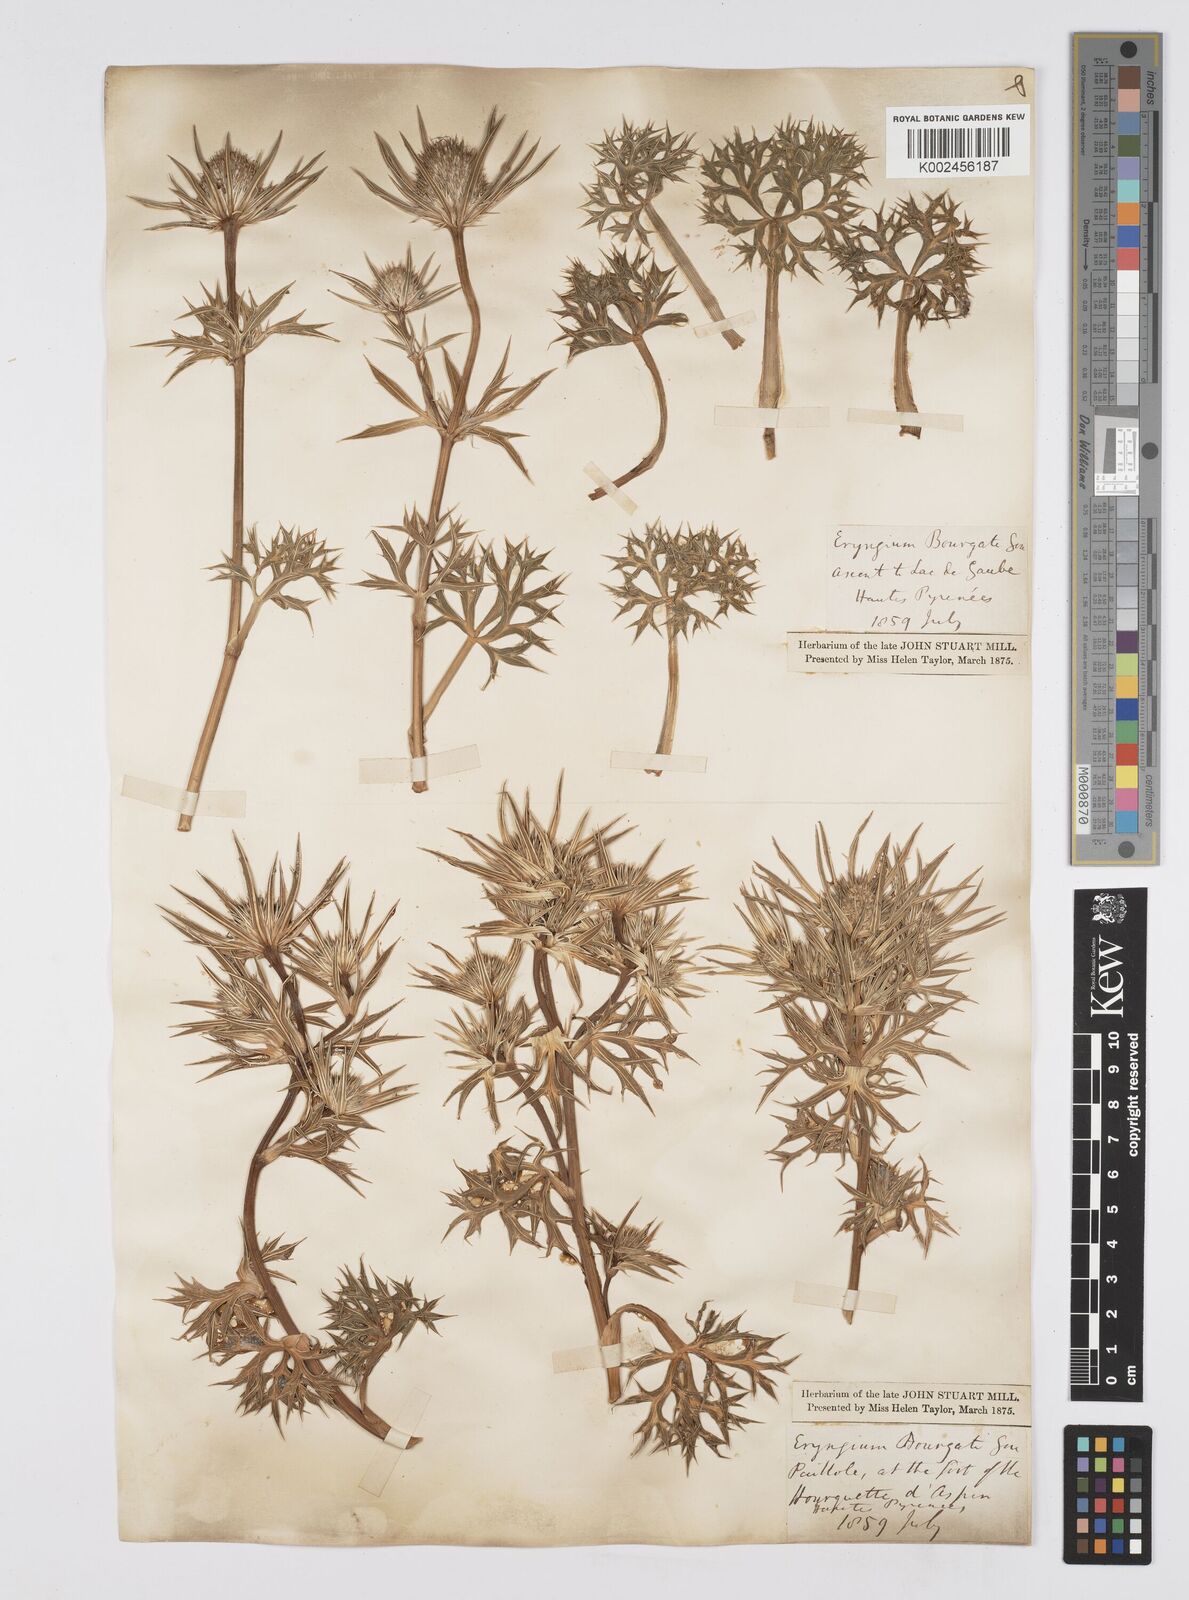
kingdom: Plantae
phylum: Tracheophyta
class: Magnoliopsida
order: Apiales
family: Apiaceae
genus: Eryngium
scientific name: Eryngium bourgatii
